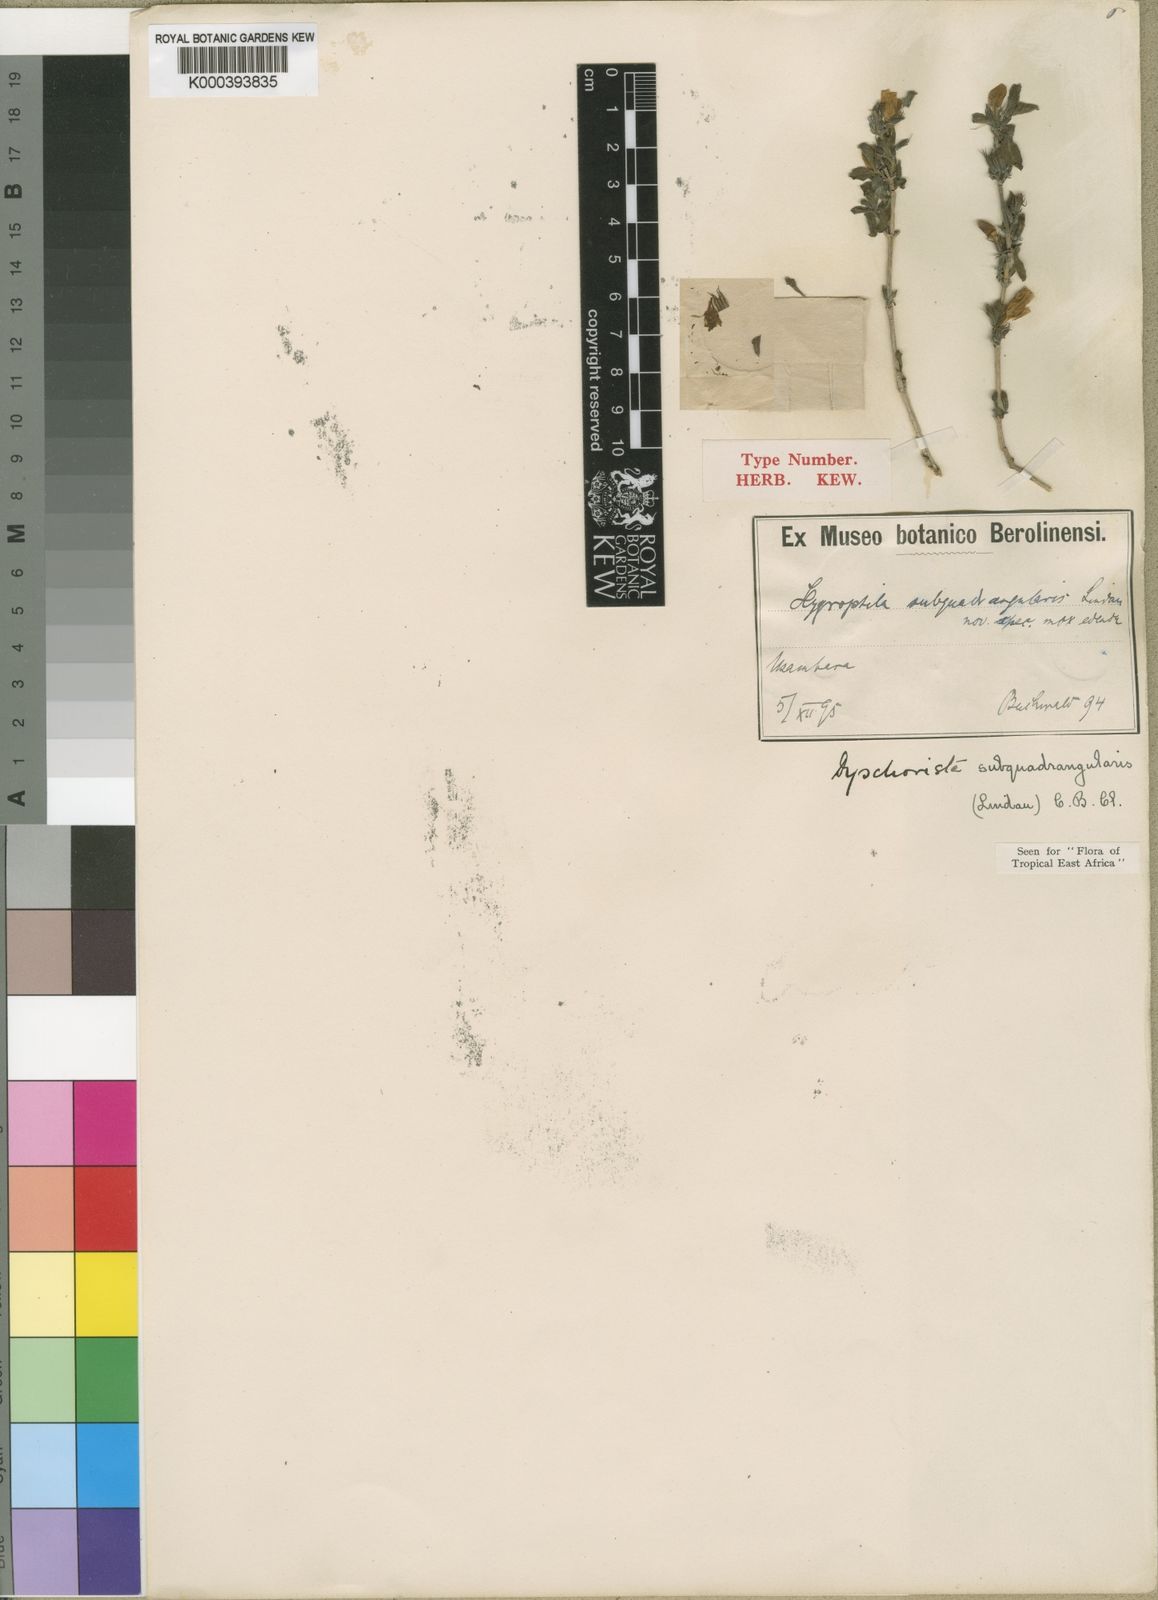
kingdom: Plantae
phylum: Tracheophyta
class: Magnoliopsida
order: Lamiales
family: Acanthaceae
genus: Dyschoriste
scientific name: Dyschoriste subquadrangularis
